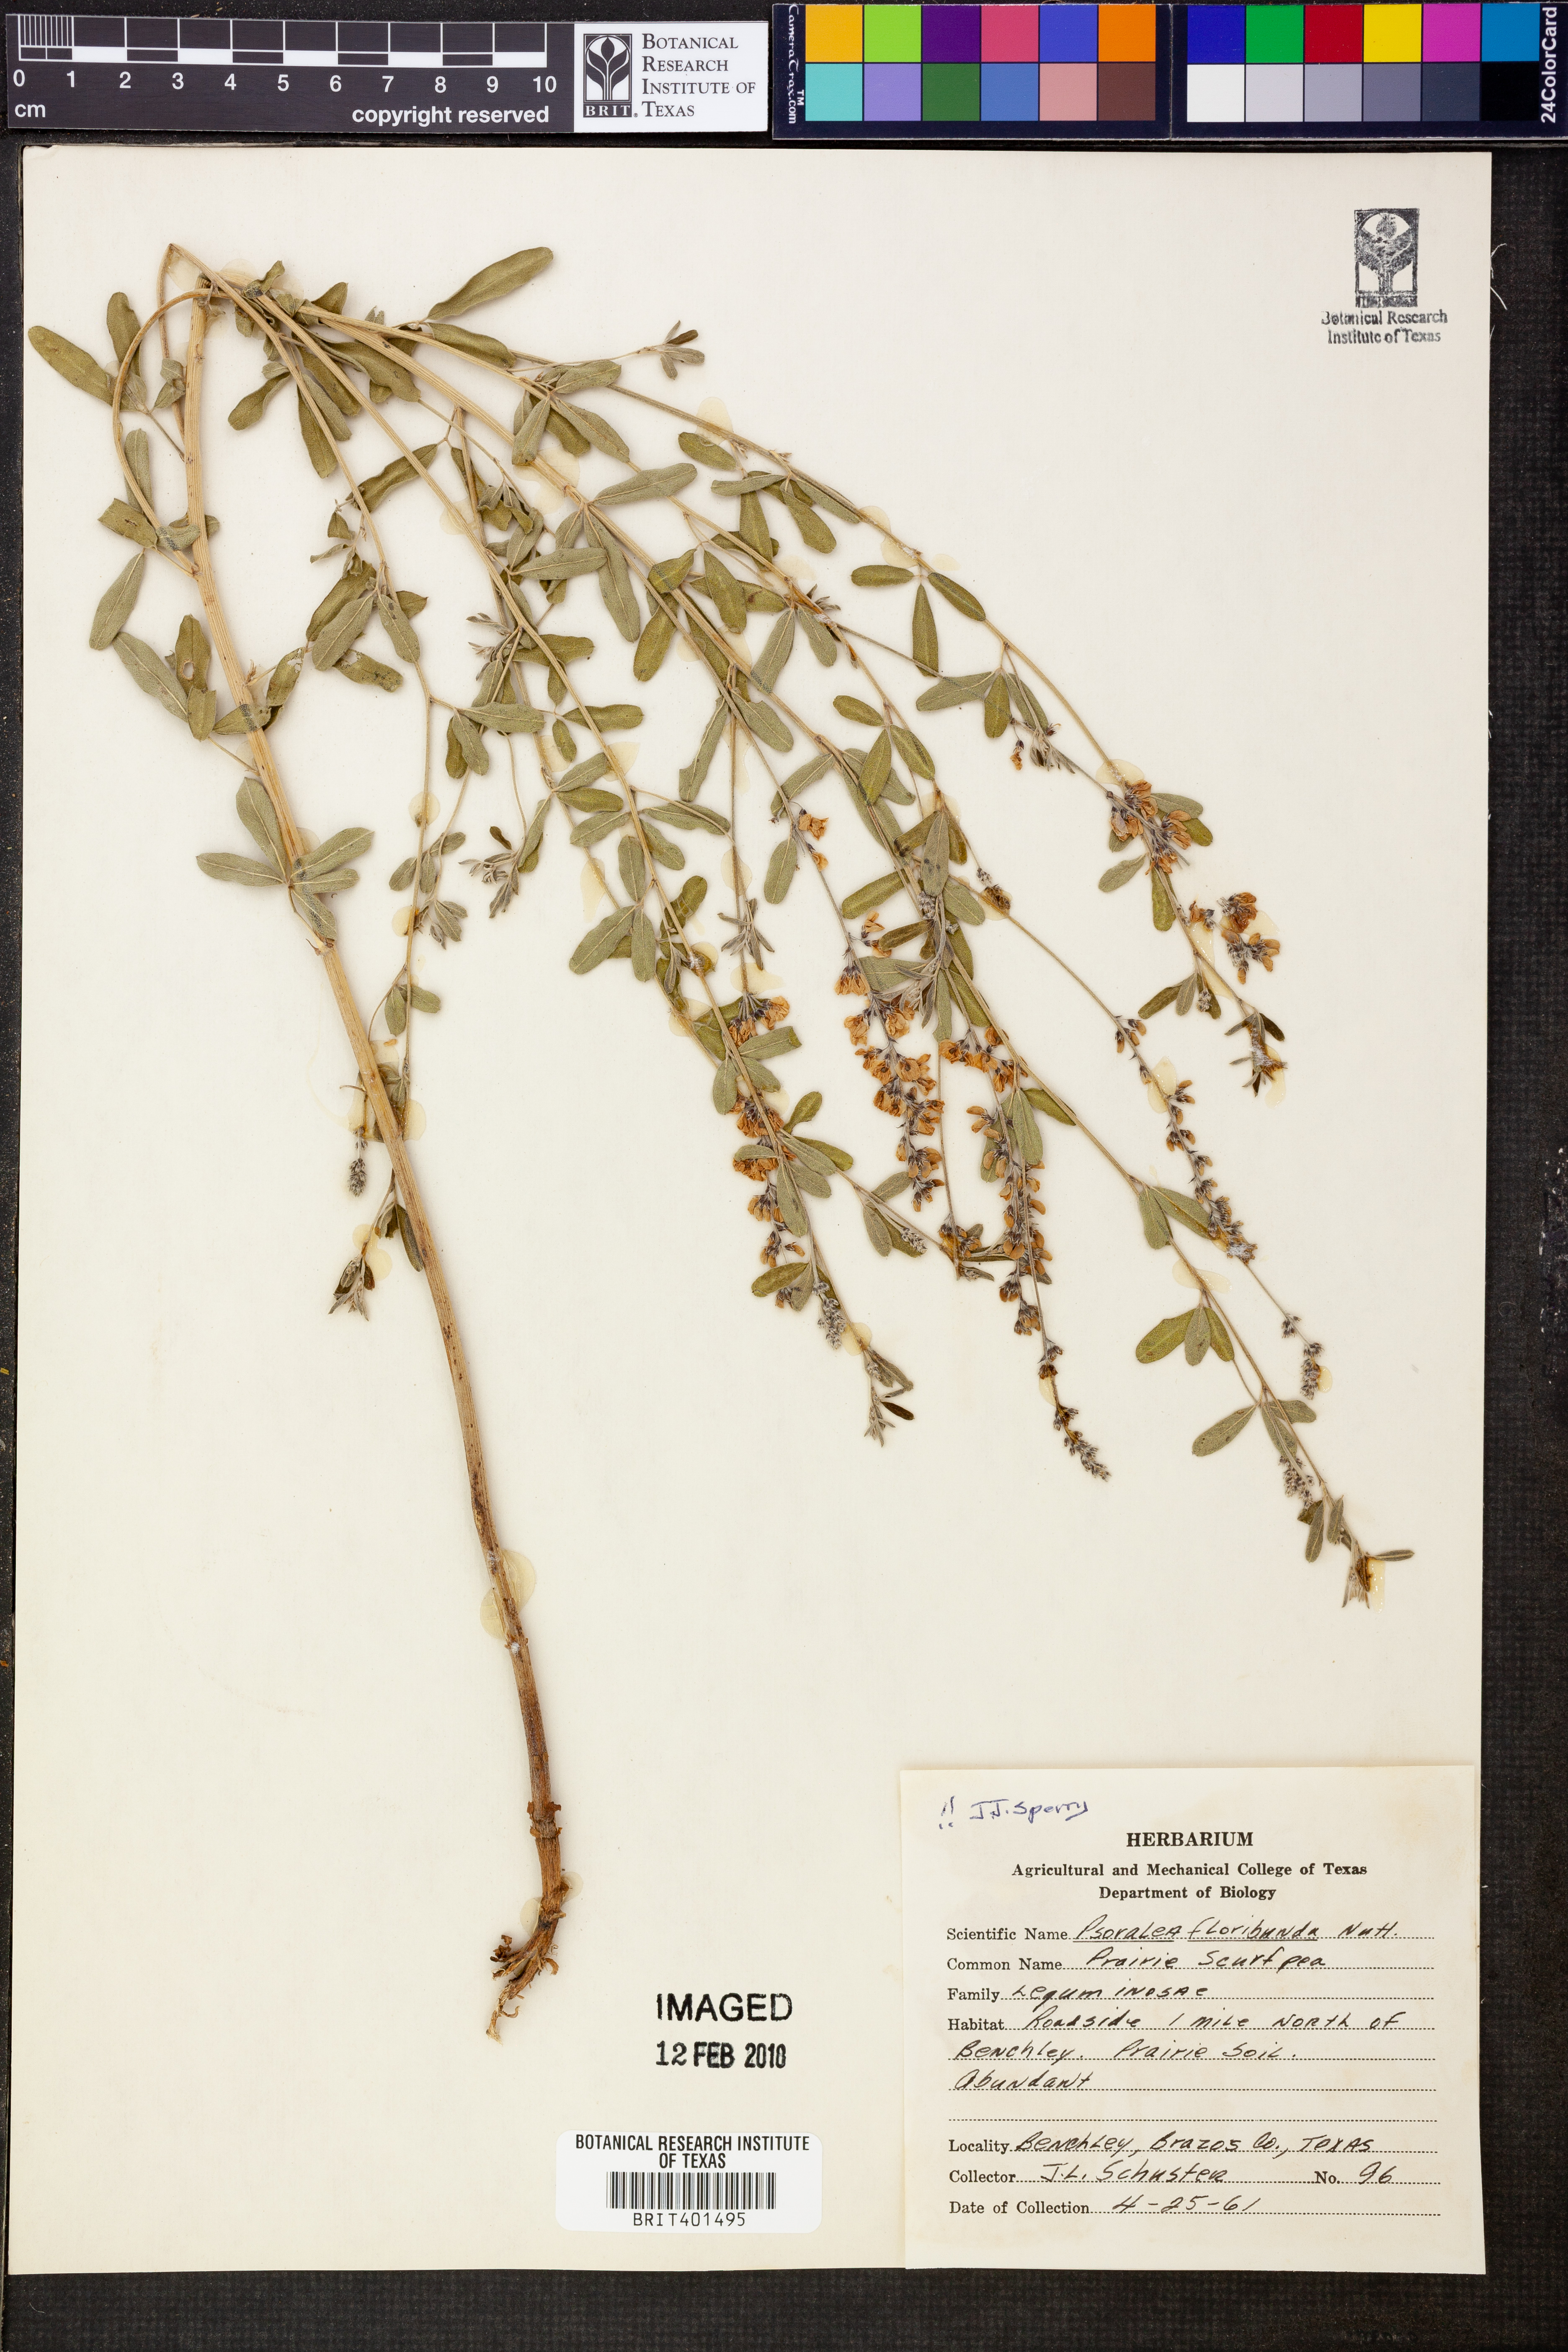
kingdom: Plantae
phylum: Tracheophyta
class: Magnoliopsida
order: Fabales
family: Fabaceae
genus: Pediomelum
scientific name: Pediomelum tenuiflorum
